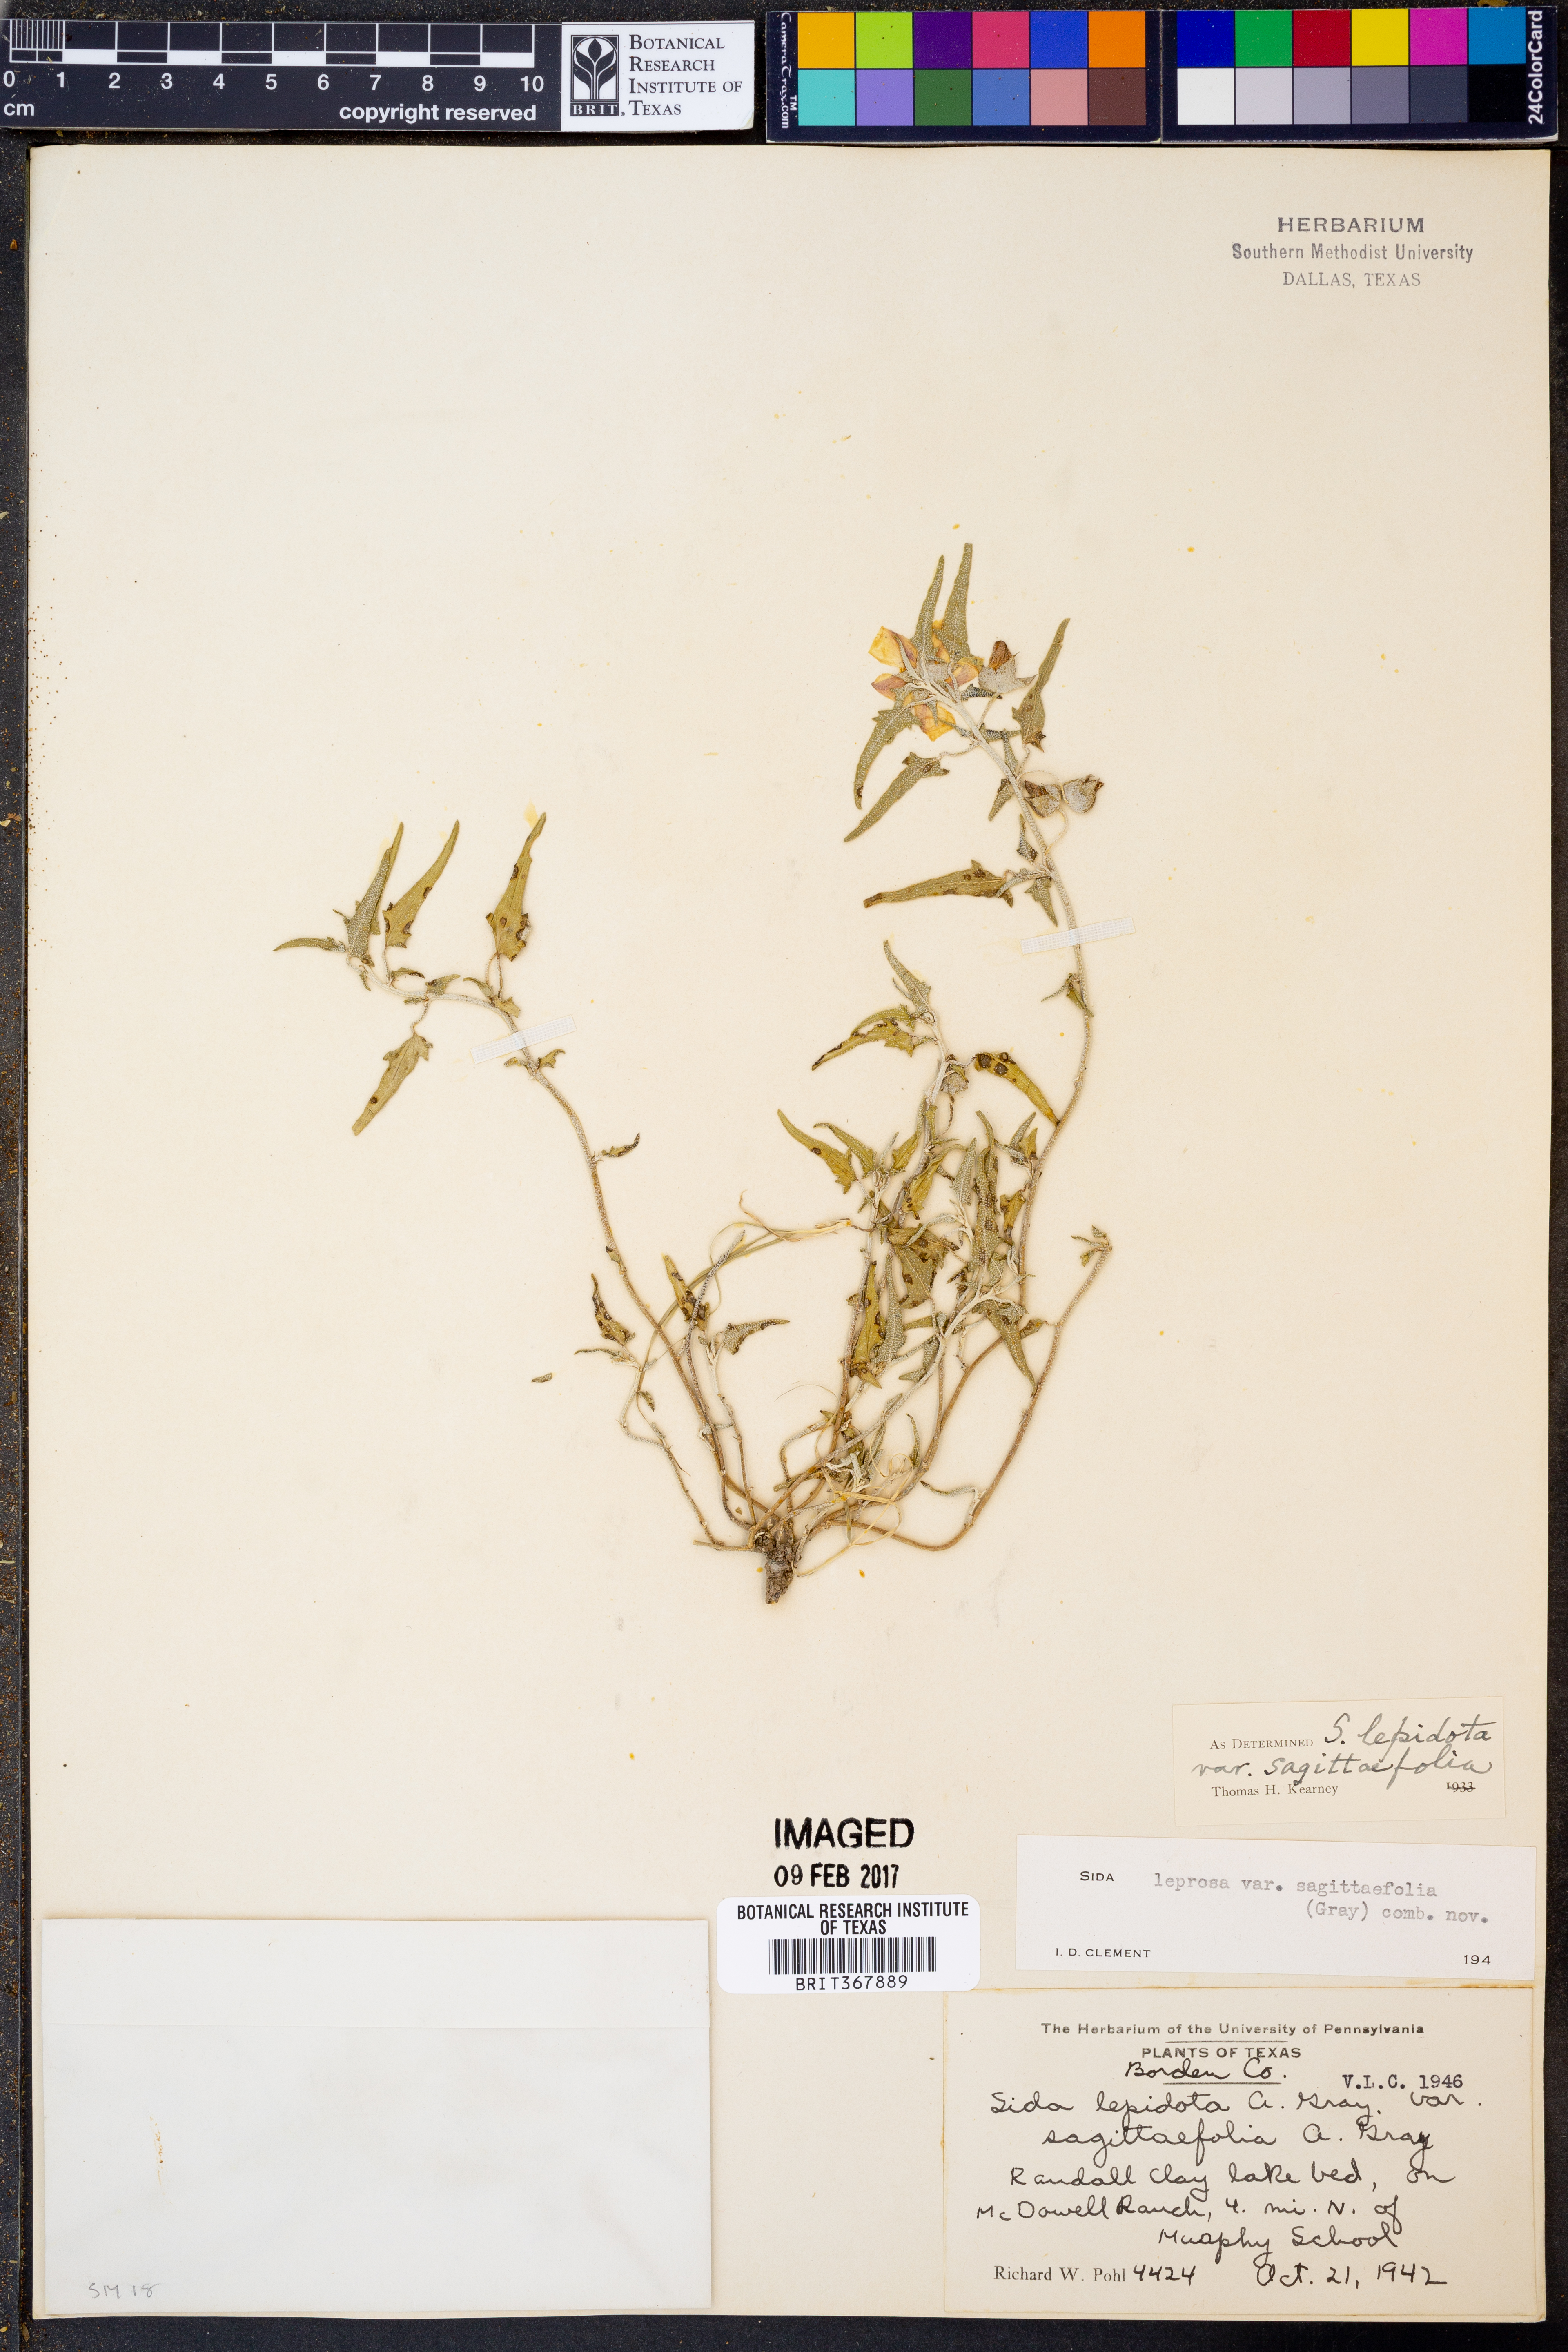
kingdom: Plantae
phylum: Tracheophyta
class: Magnoliopsida
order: Malvales
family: Malvaceae
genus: Malvella
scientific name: Malvella sagittifolia
